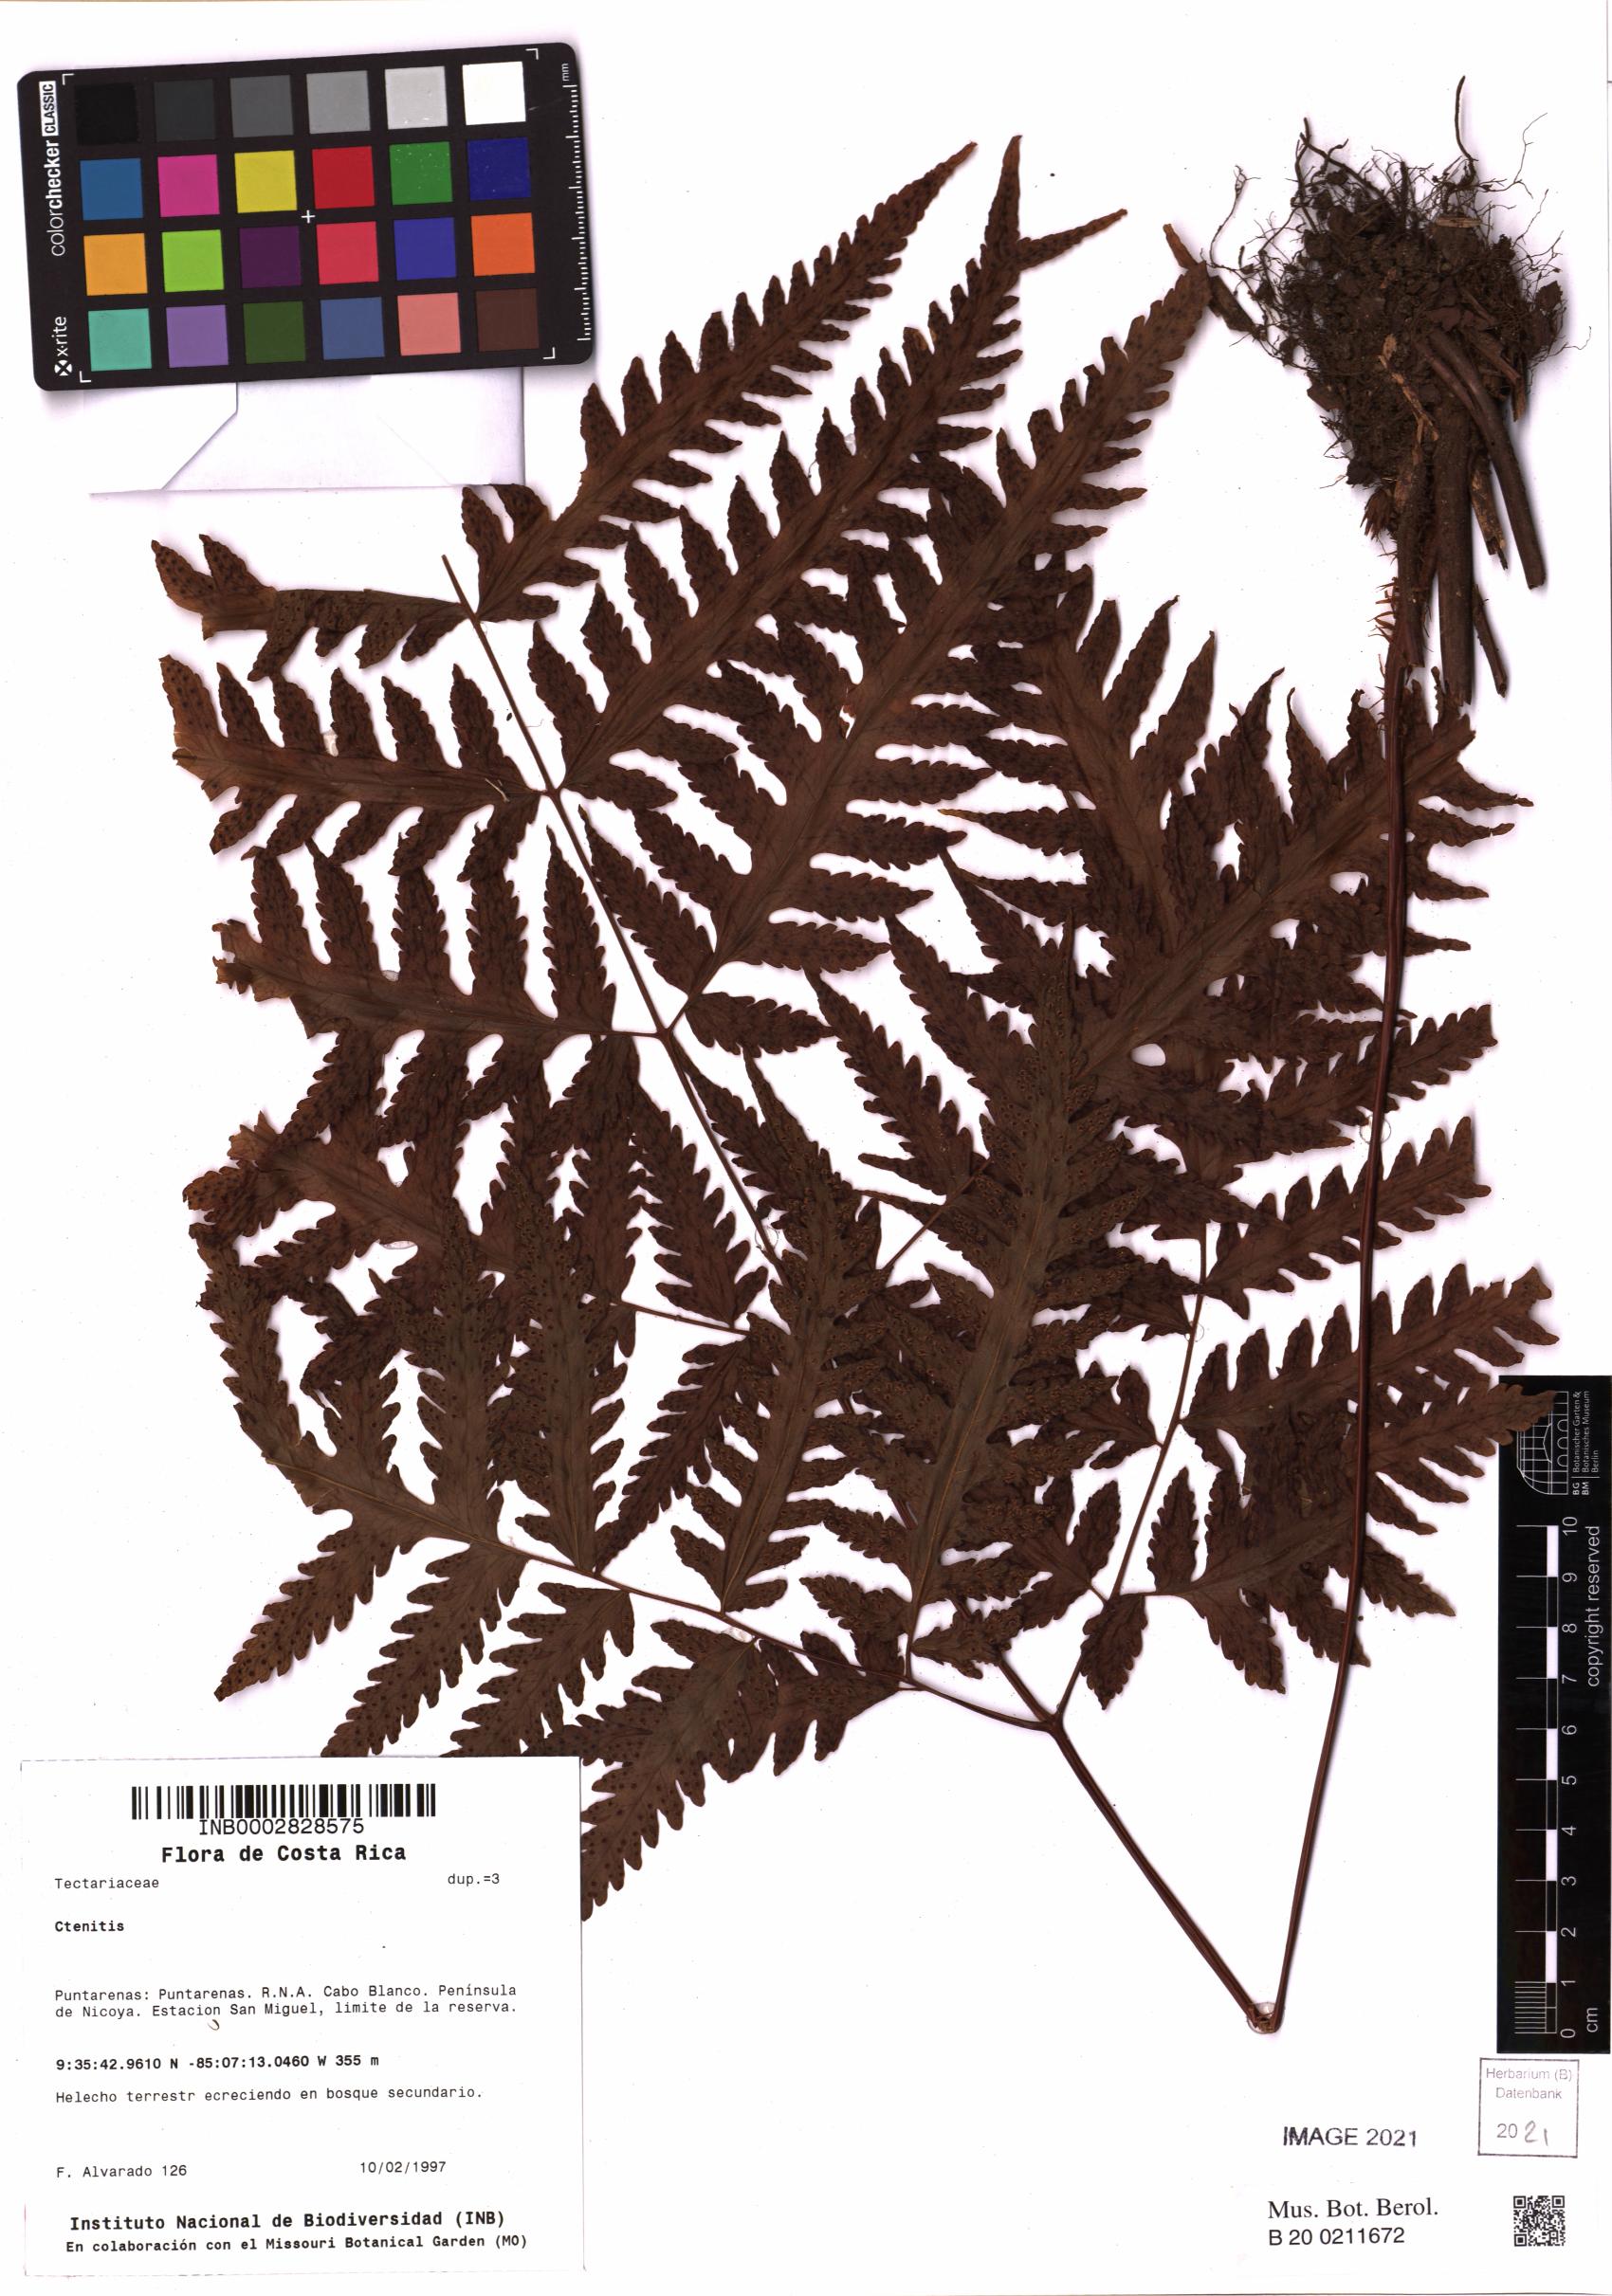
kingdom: Plantae
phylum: Tracheophyta
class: Polypodiopsida
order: Polypodiales
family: Dryopteridaceae
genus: Ctenitis
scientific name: Ctenitis
